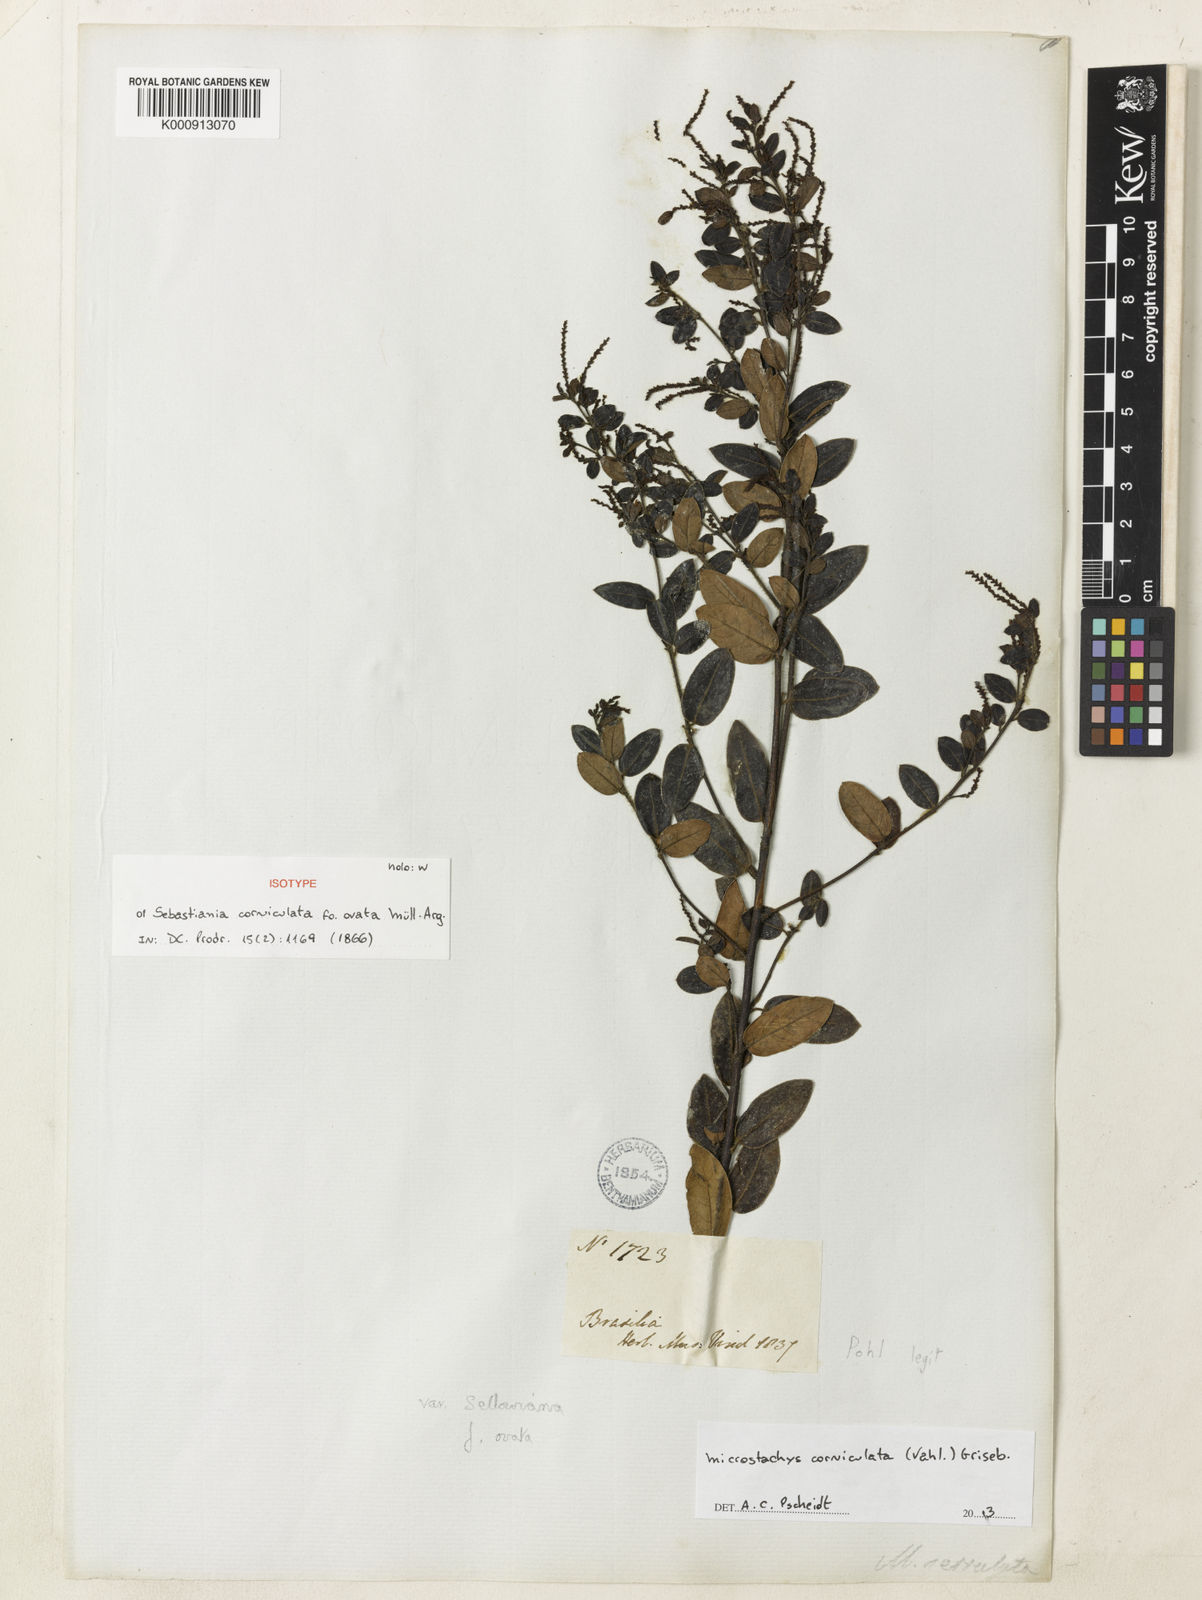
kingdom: Plantae
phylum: Tracheophyta
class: Magnoliopsida
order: Malpighiales
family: Euphorbiaceae
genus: Microstachys
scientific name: Microstachys corniculata
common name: Hato tejas
